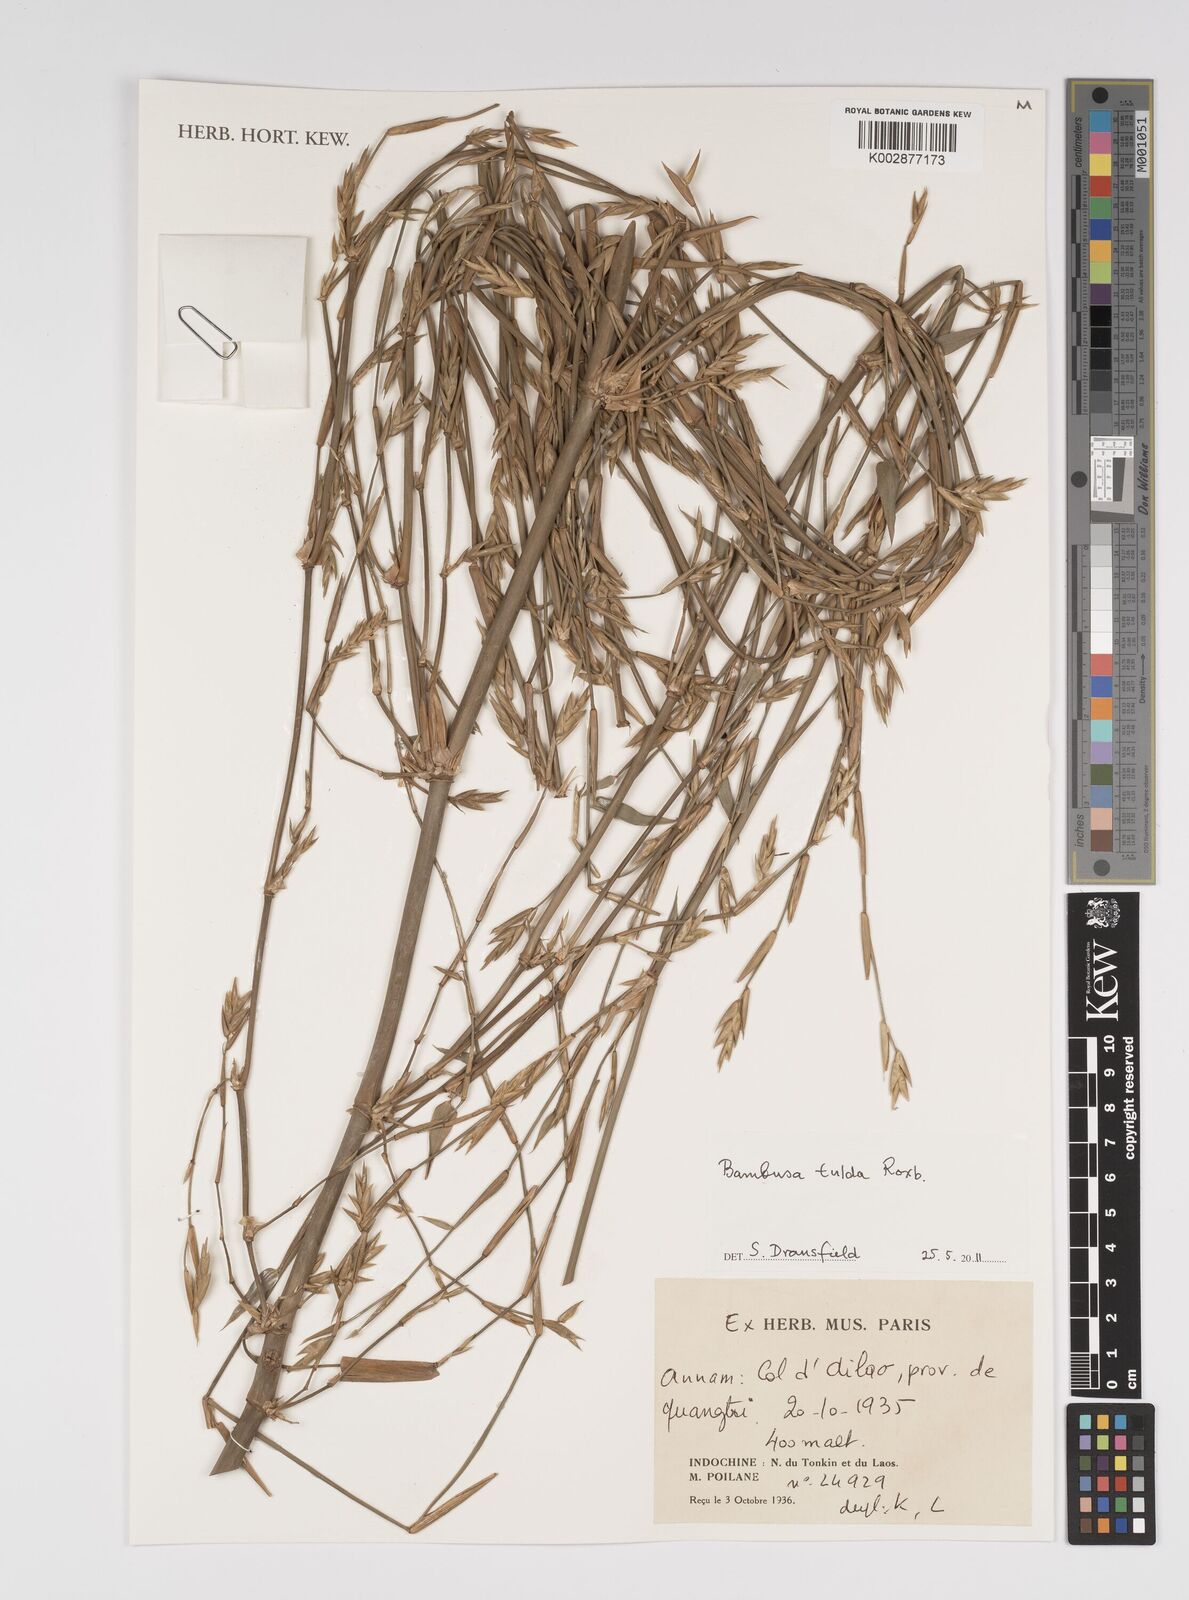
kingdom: Plantae
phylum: Tracheophyta
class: Liliopsida
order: Poales
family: Poaceae
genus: Bambusa
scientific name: Bambusa tulda
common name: Bengal bamboo
